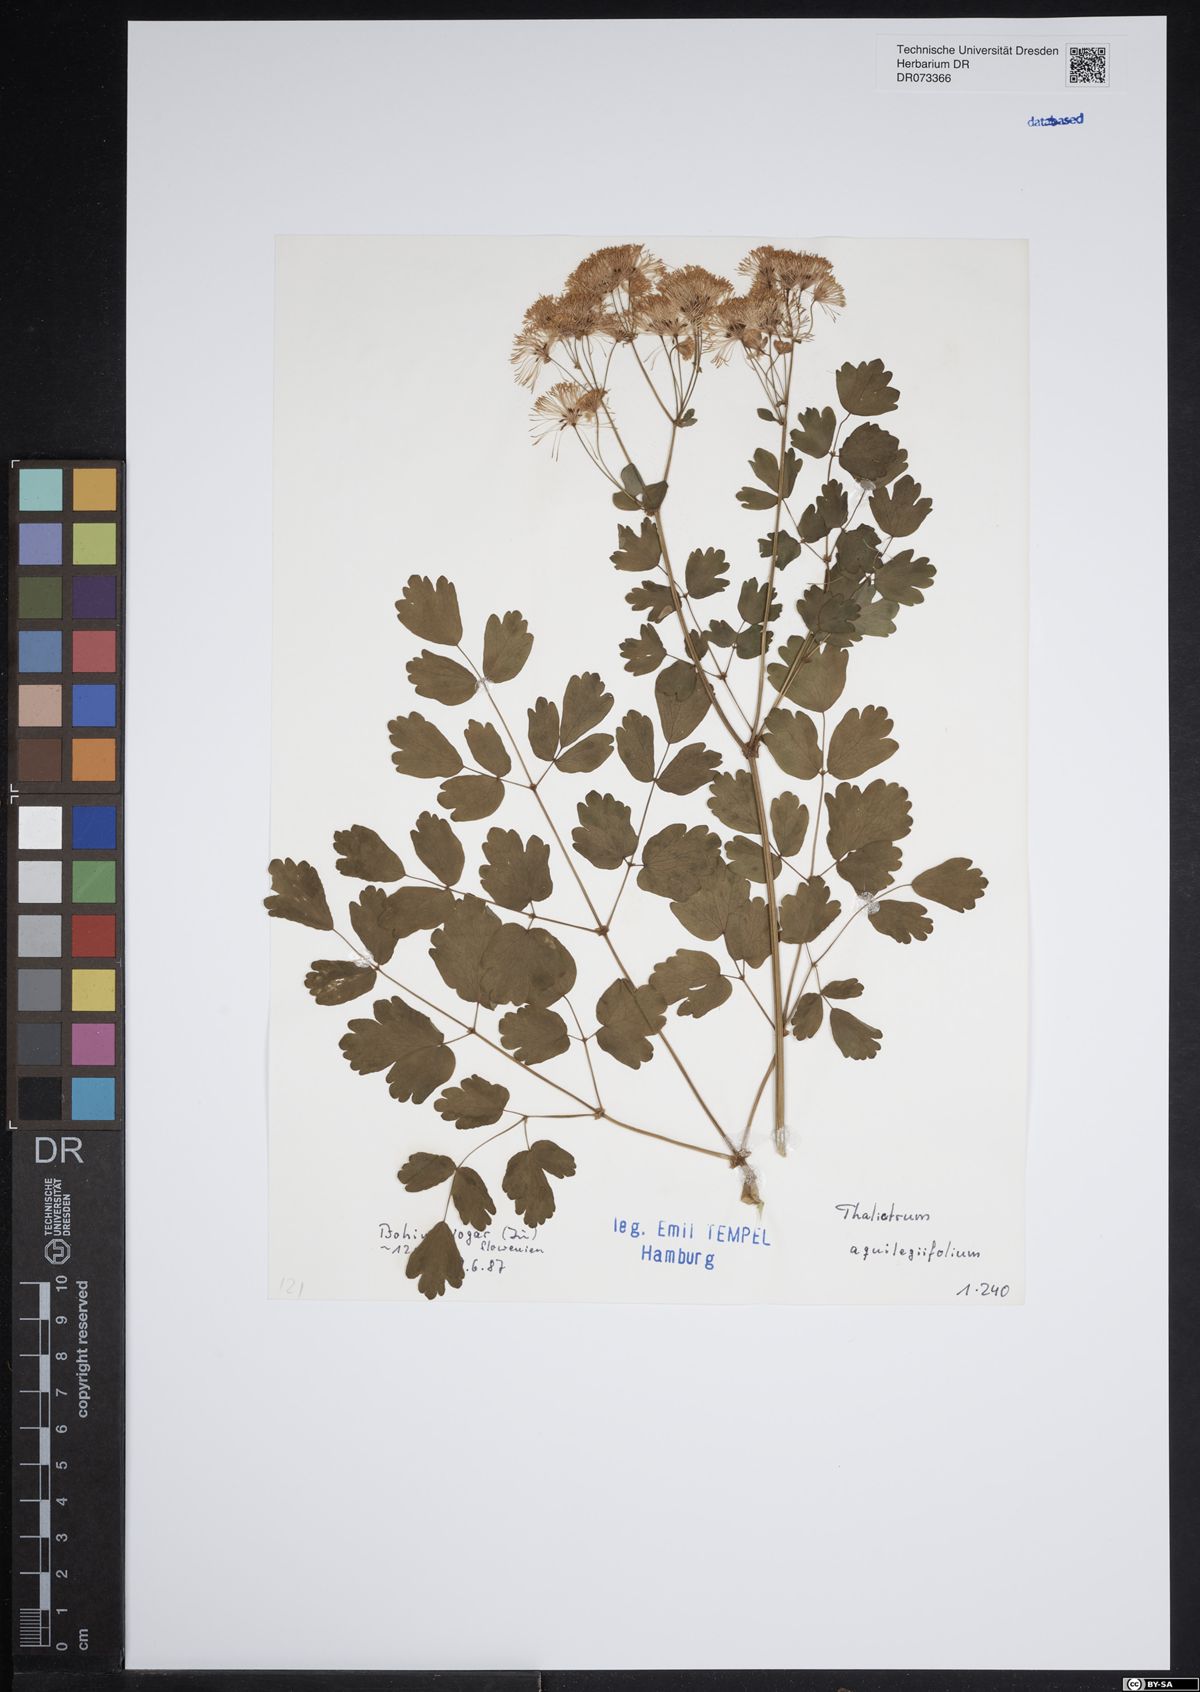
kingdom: Plantae
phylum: Tracheophyta
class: Magnoliopsida
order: Ranunculales
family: Ranunculaceae
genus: Thalictrum
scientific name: Thalictrum aquilegiifolium
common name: French meadow-rue
